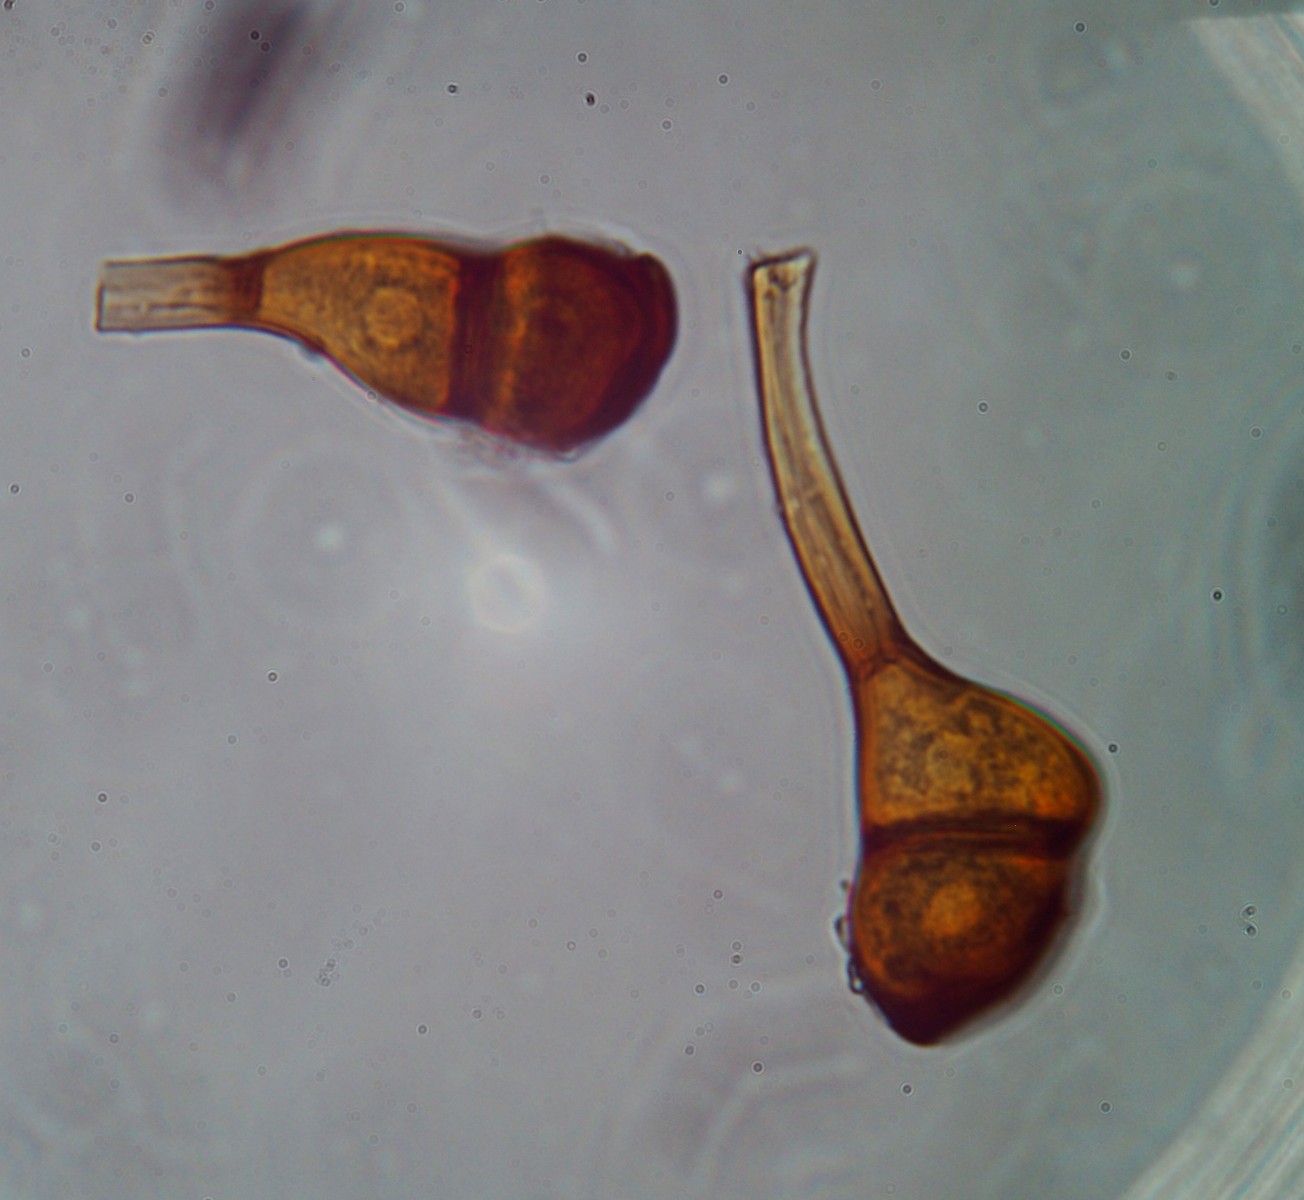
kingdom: Fungi
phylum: Basidiomycota
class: Pucciniomycetes
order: Pucciniales
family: Pucciniaceae
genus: Puccinia
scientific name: Puccinia coronata
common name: Crown rust
